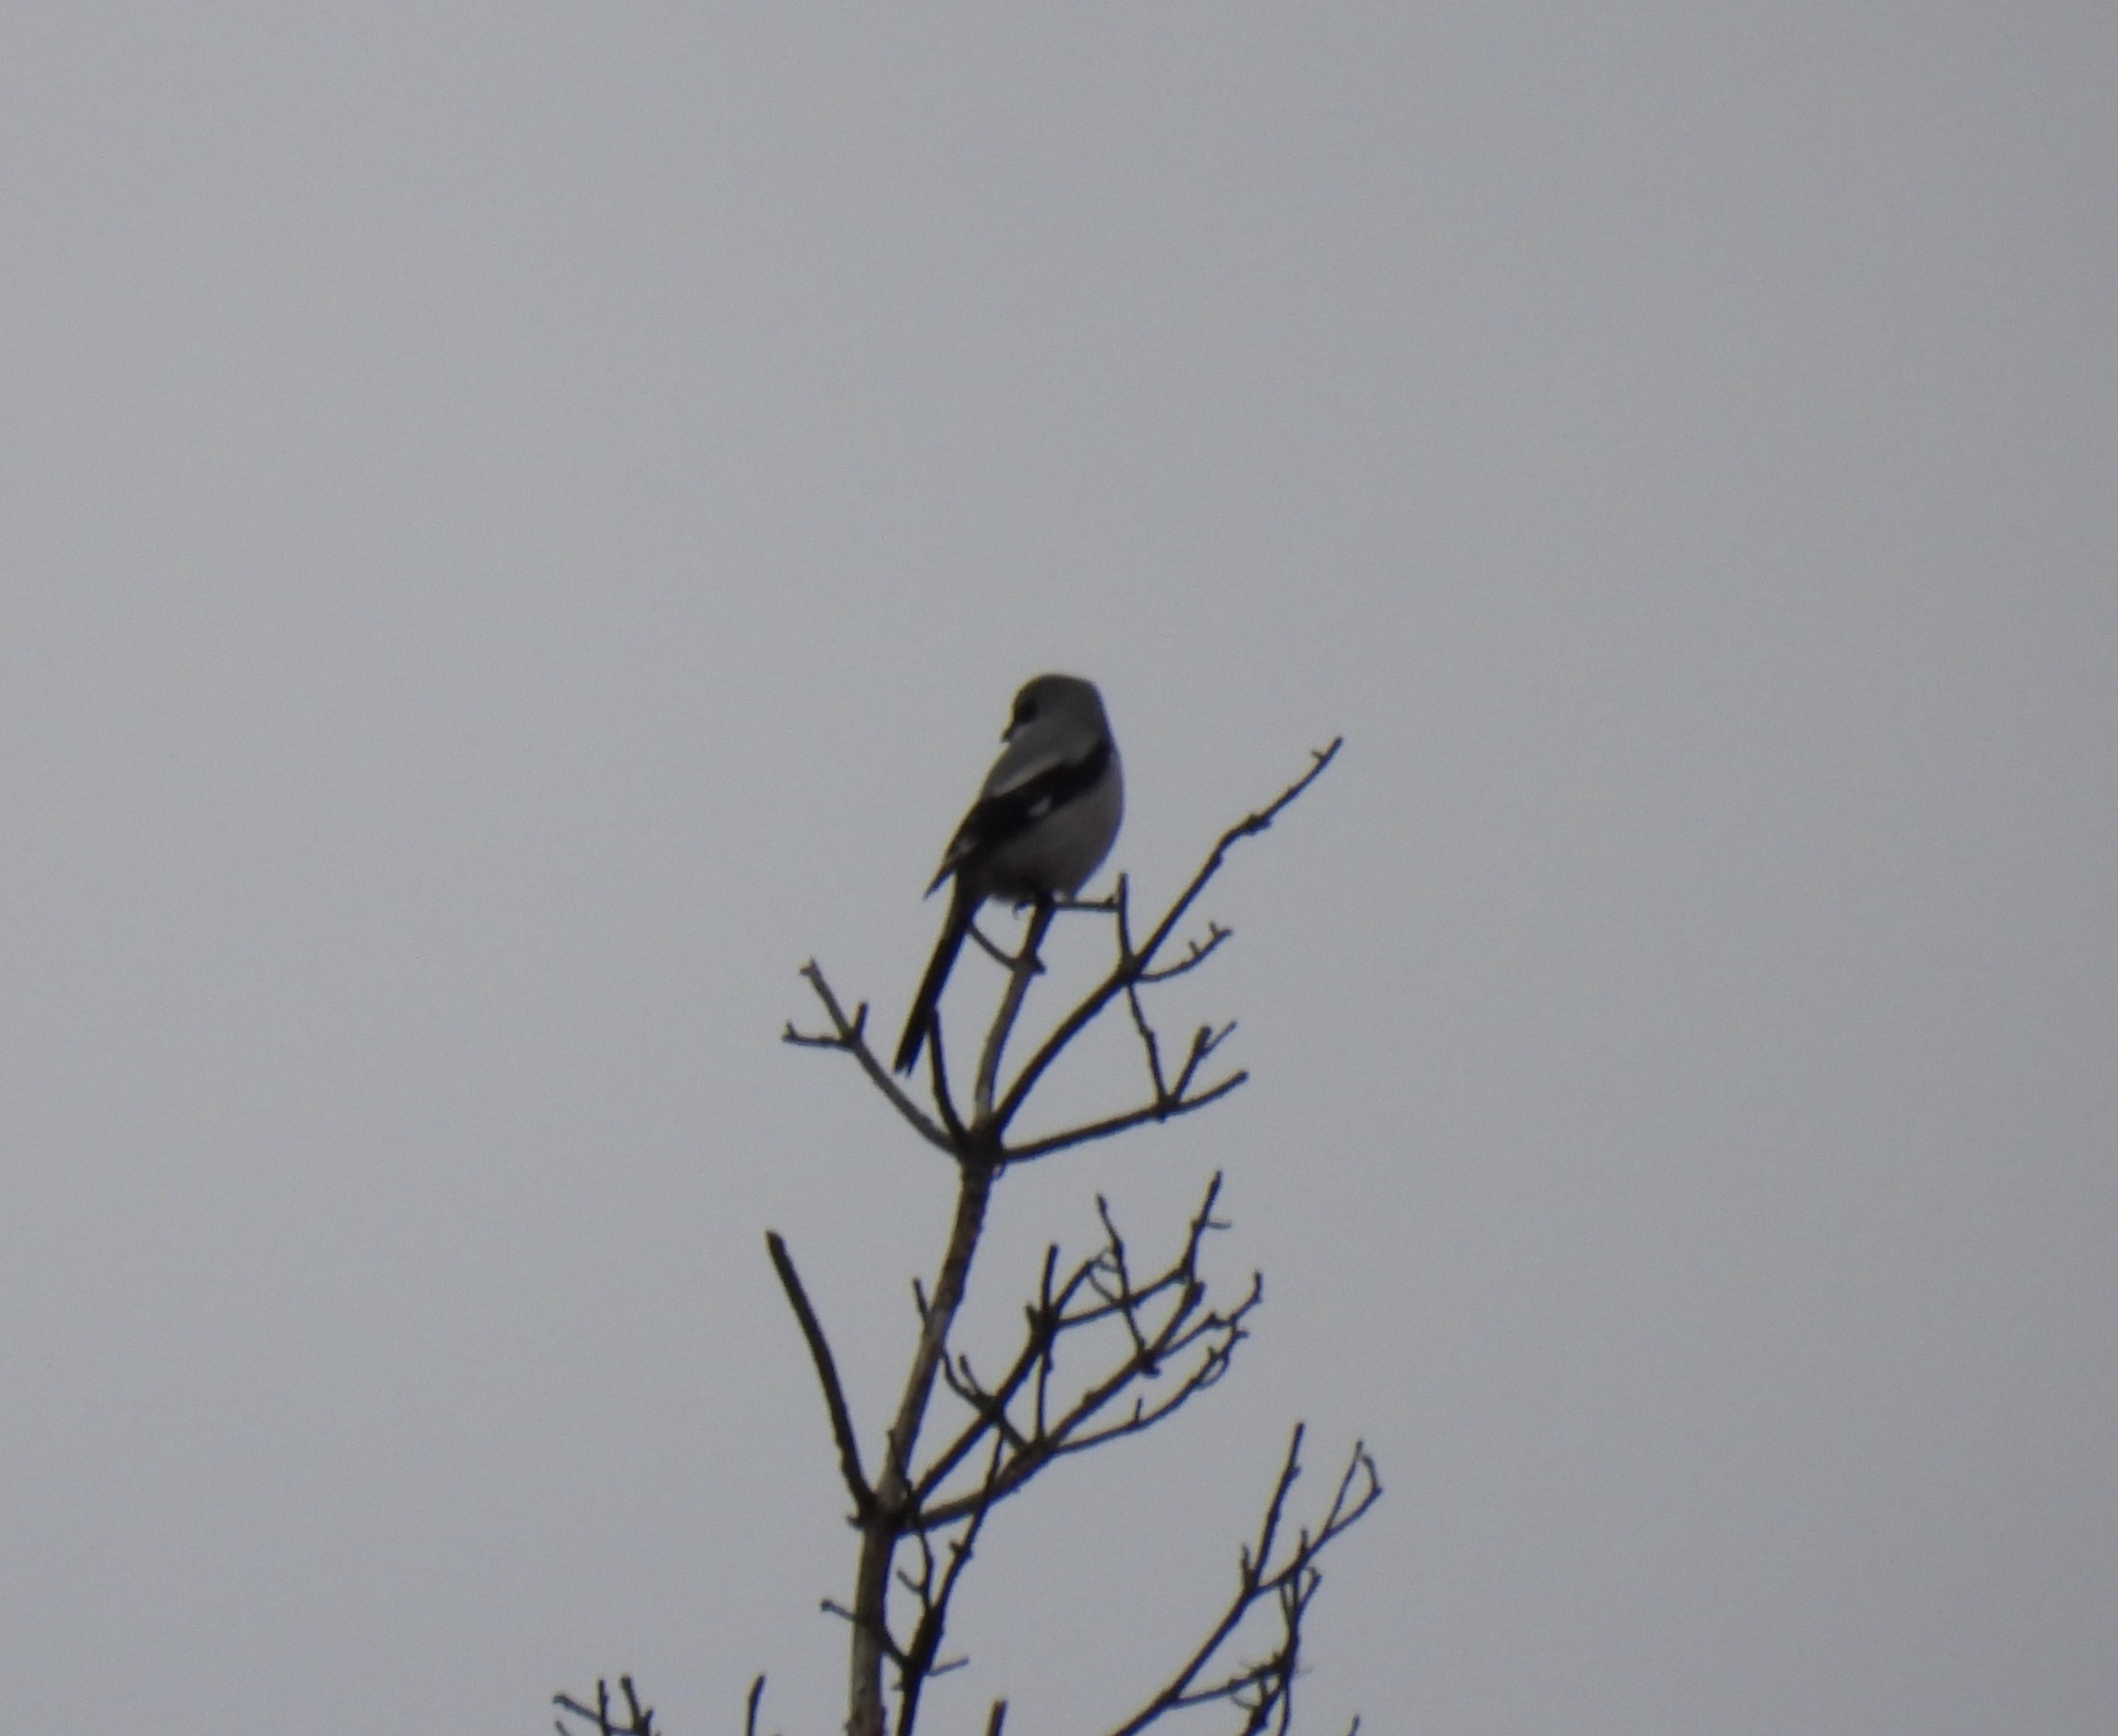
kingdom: Animalia
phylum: Chordata
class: Aves
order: Passeriformes
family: Laniidae
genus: Lanius
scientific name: Lanius excubitor
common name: Stor tornskade
